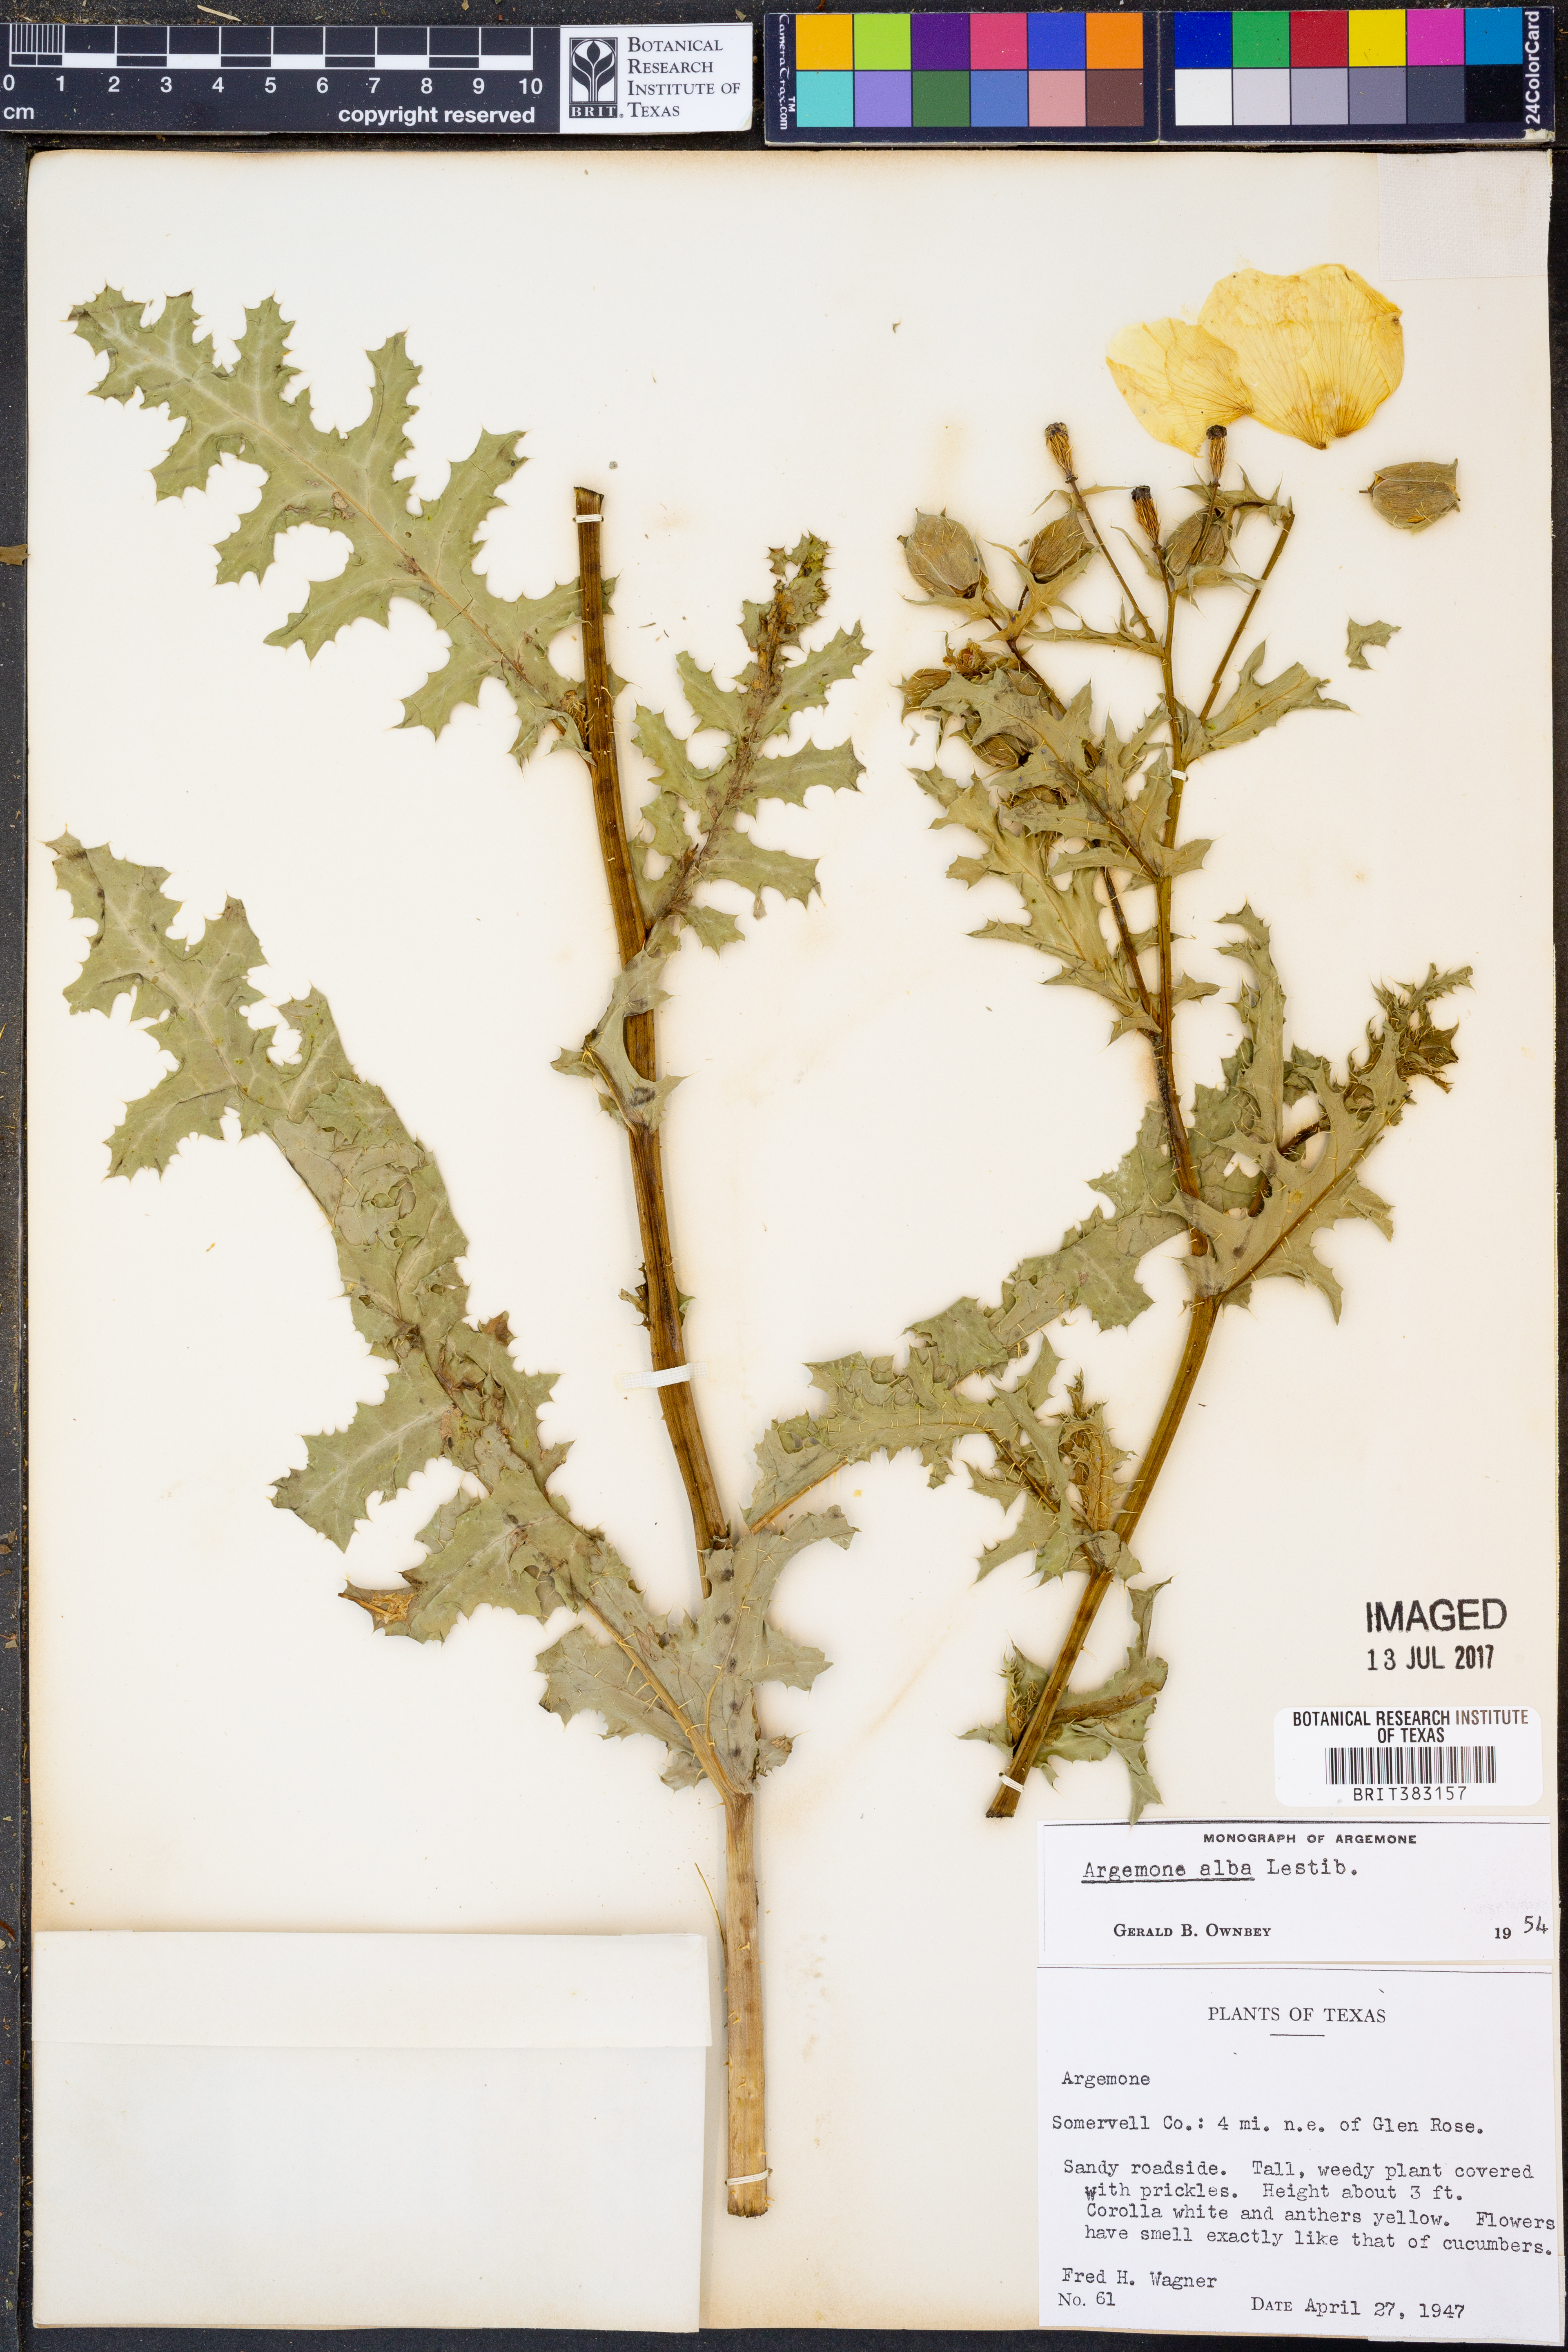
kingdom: Plantae
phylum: Tracheophyta
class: Magnoliopsida
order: Ranunculales
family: Papaveraceae
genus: Argemone
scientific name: Argemone albiflora
